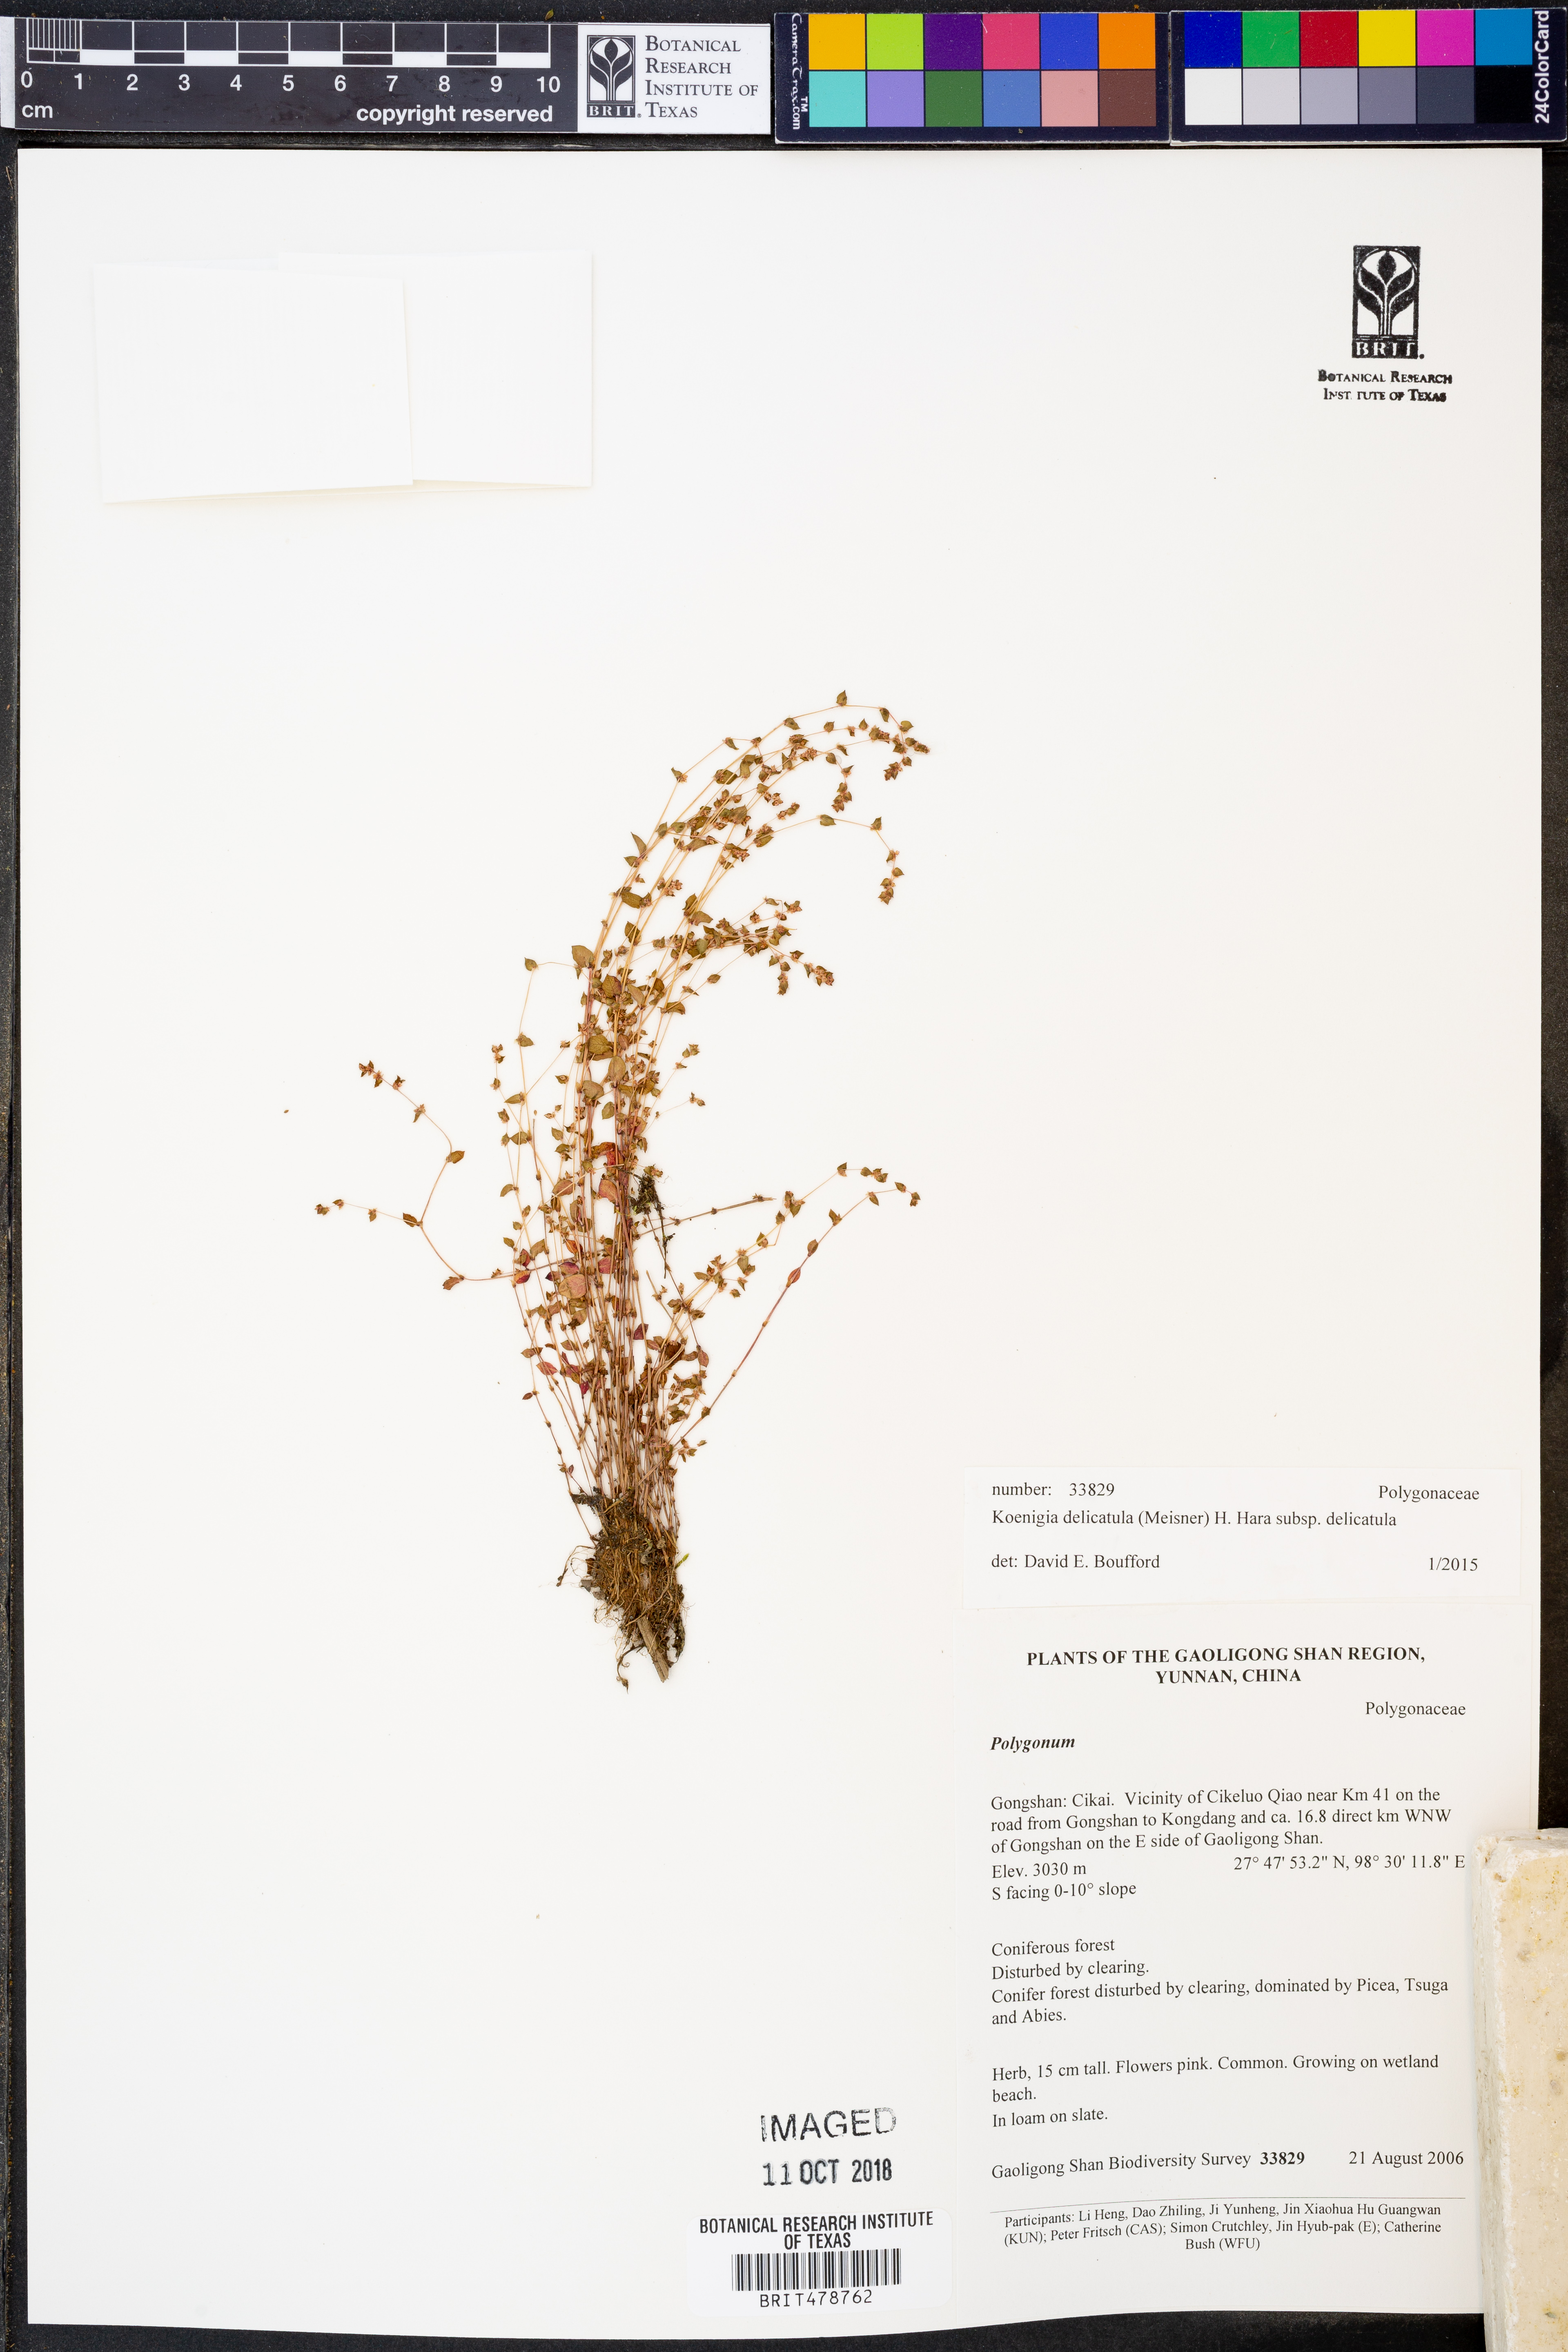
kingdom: Plantae
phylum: Tracheophyta
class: Magnoliopsida
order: Caryophyllales
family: Polygonaceae
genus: Koenigia
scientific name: Koenigia delicatula
